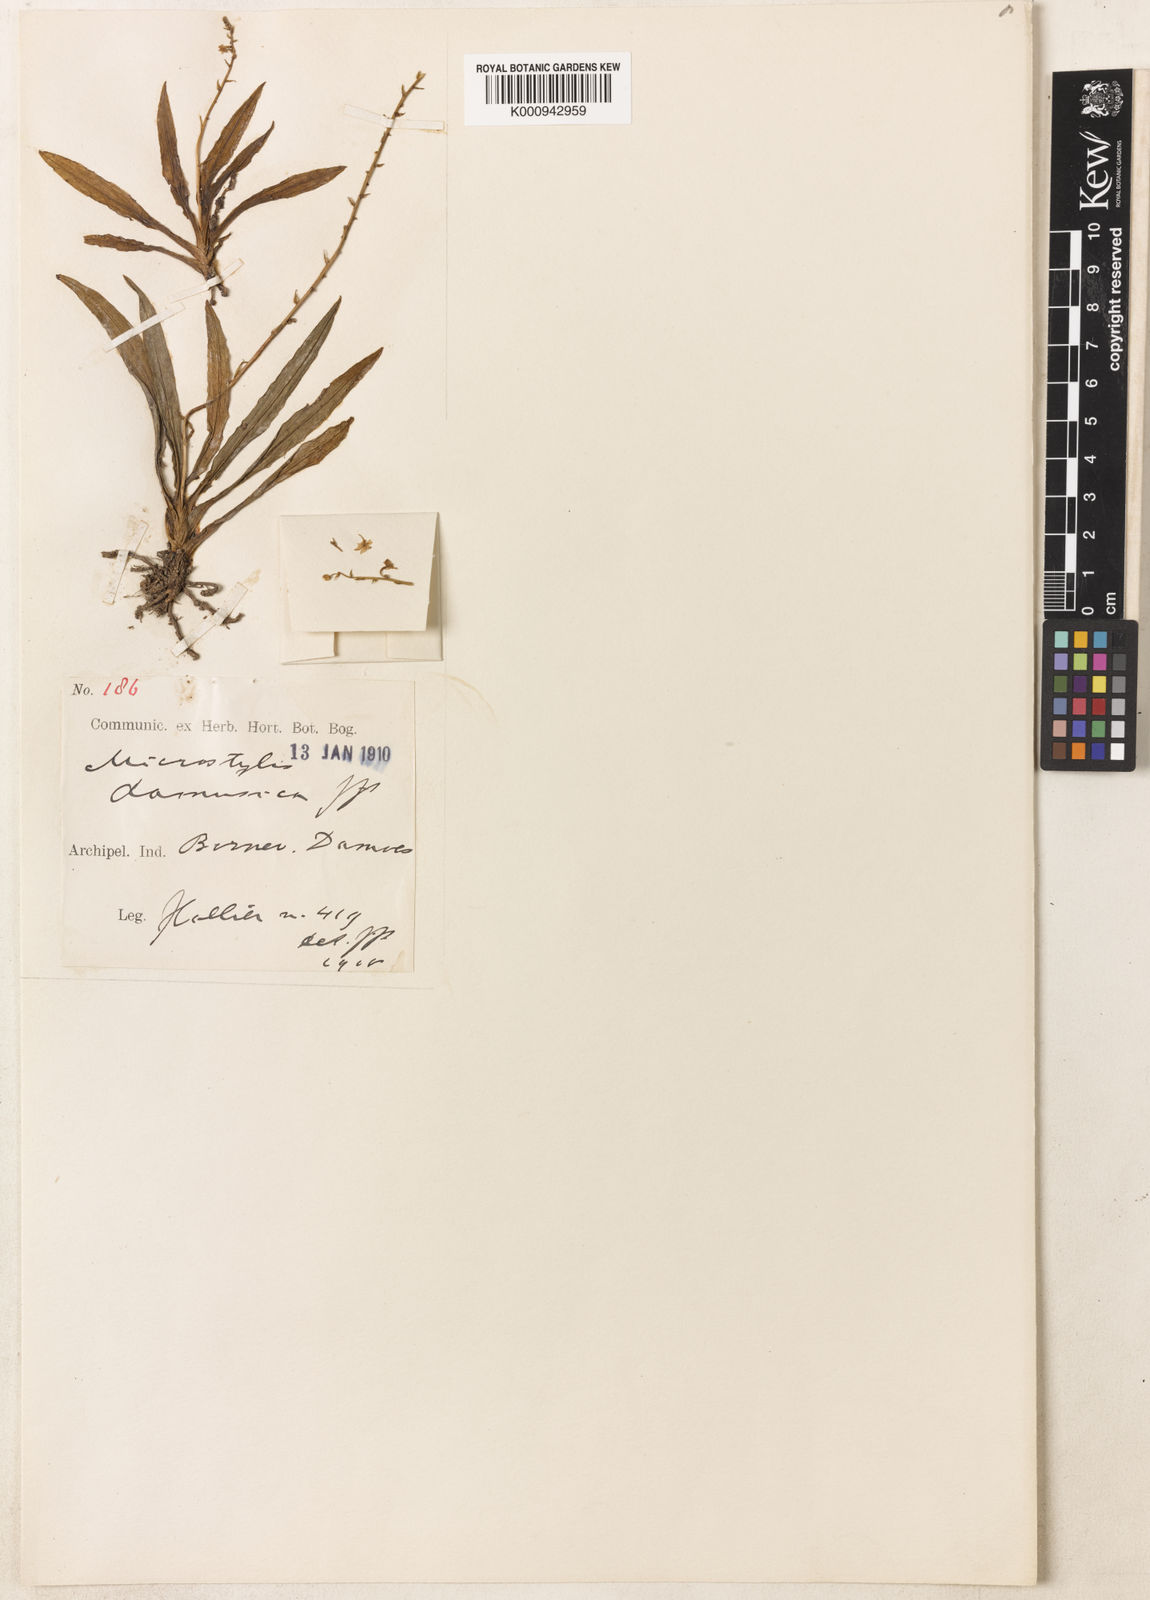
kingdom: Plantae
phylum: Tracheophyta
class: Liliopsida
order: Asparagales
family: Orchidaceae
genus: Crepidium
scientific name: Crepidium damusicum
